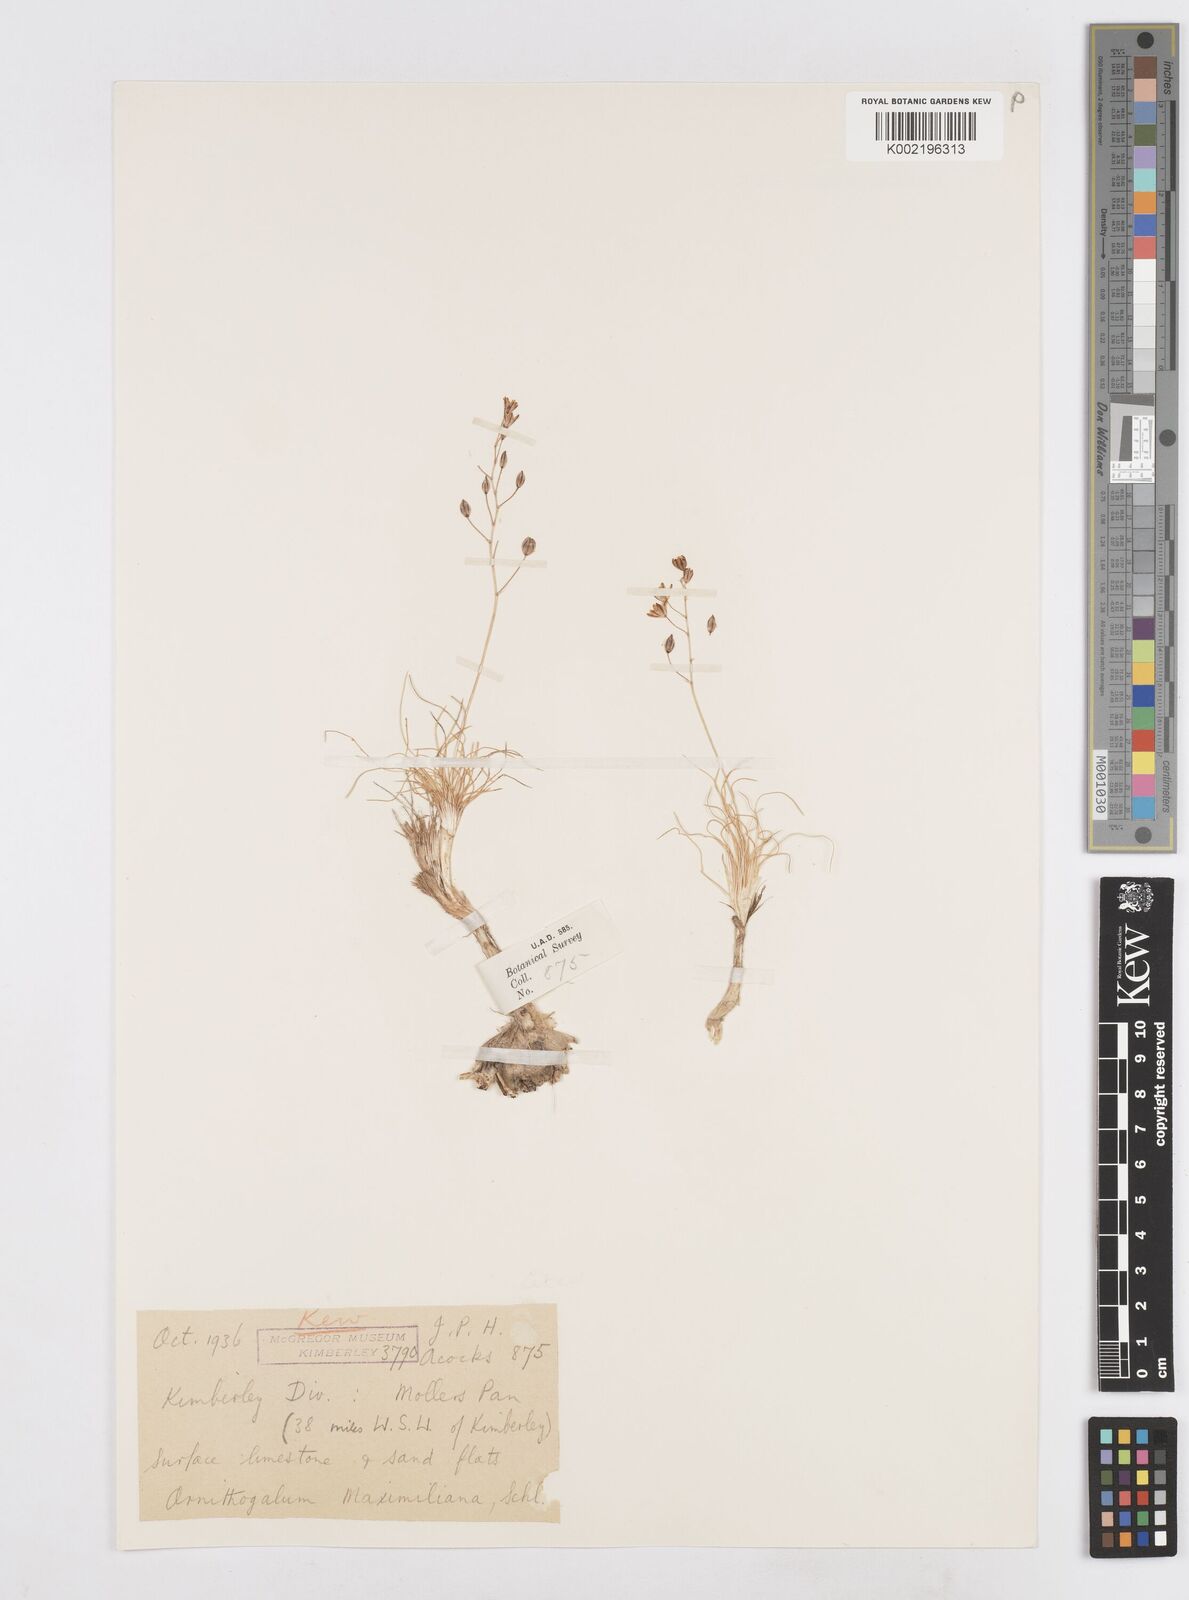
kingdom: Plantae
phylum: Tracheophyta
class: Liliopsida
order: Asparagales
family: Asparagaceae
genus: Ornithogalum
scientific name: Ornithogalum nanodes
